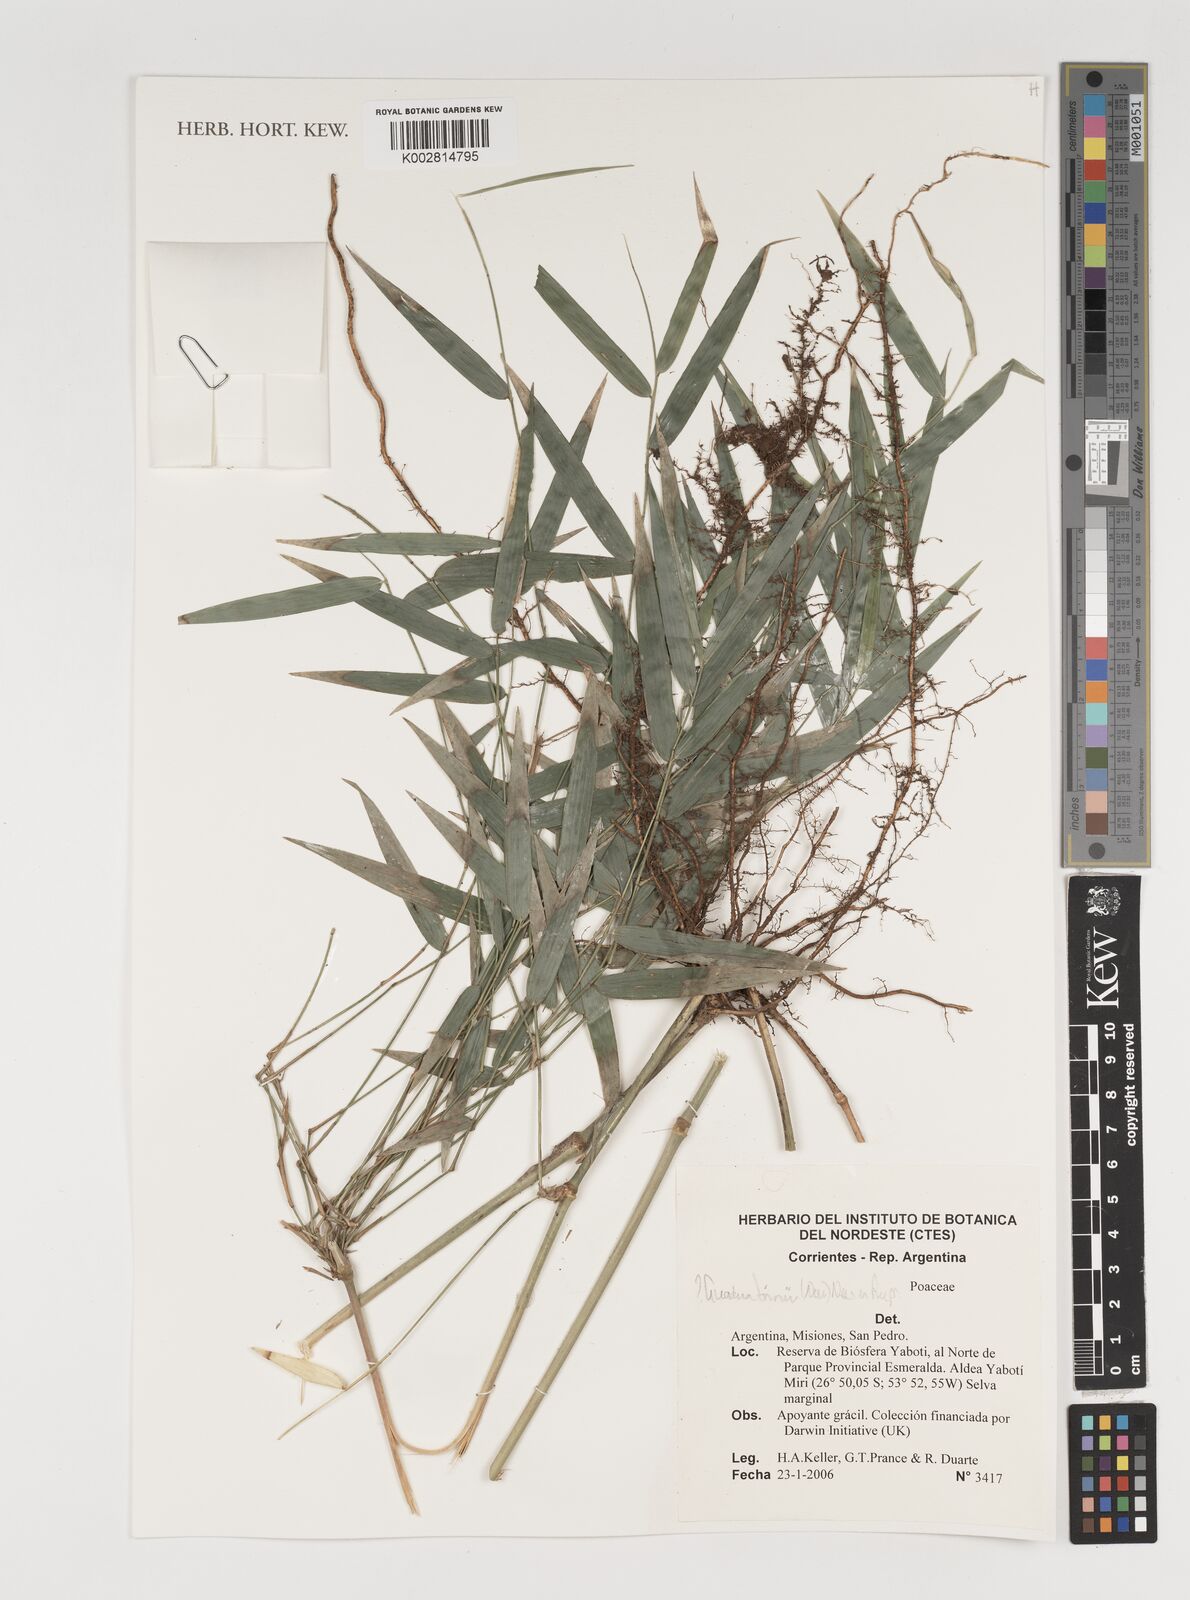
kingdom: Plantae
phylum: Tracheophyta
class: Liliopsida
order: Poales
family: Poaceae
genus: Guadua
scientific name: Guadua trinii
